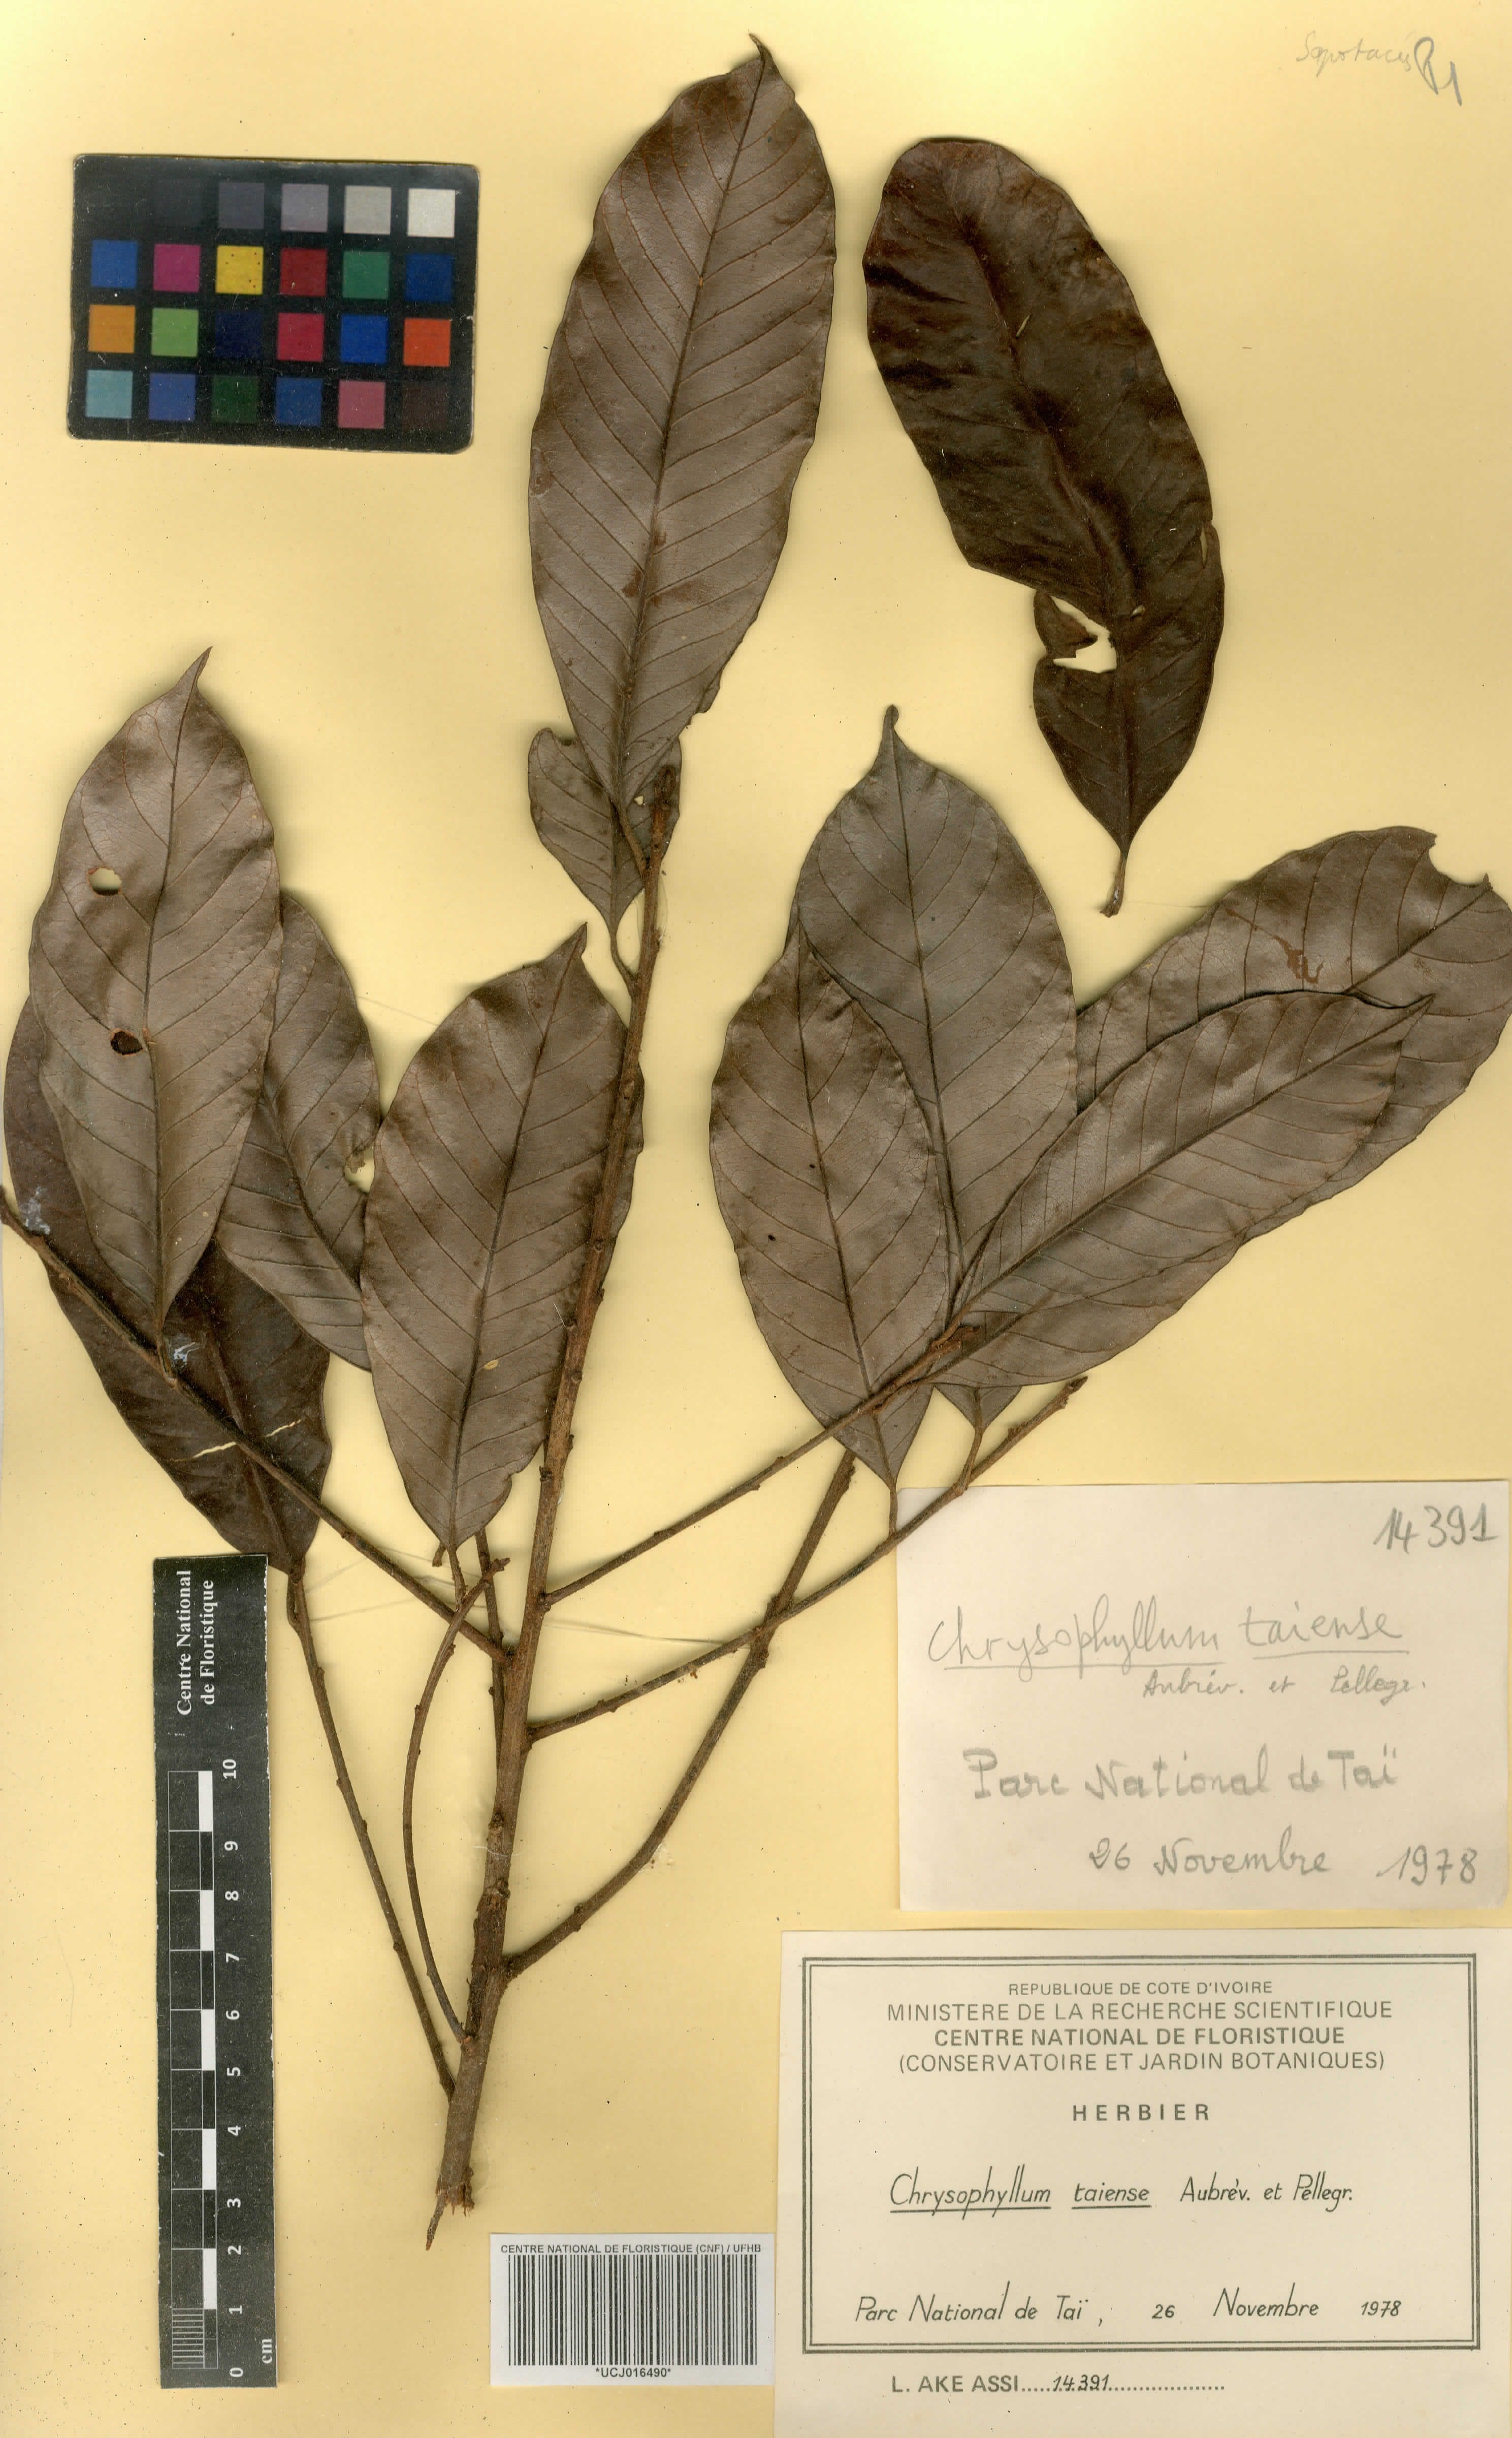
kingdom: Plantae
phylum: Tracheophyta
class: Magnoliopsida
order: Ericales
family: Sapotaceae
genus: Gambeya
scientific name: Gambeya taiensis
